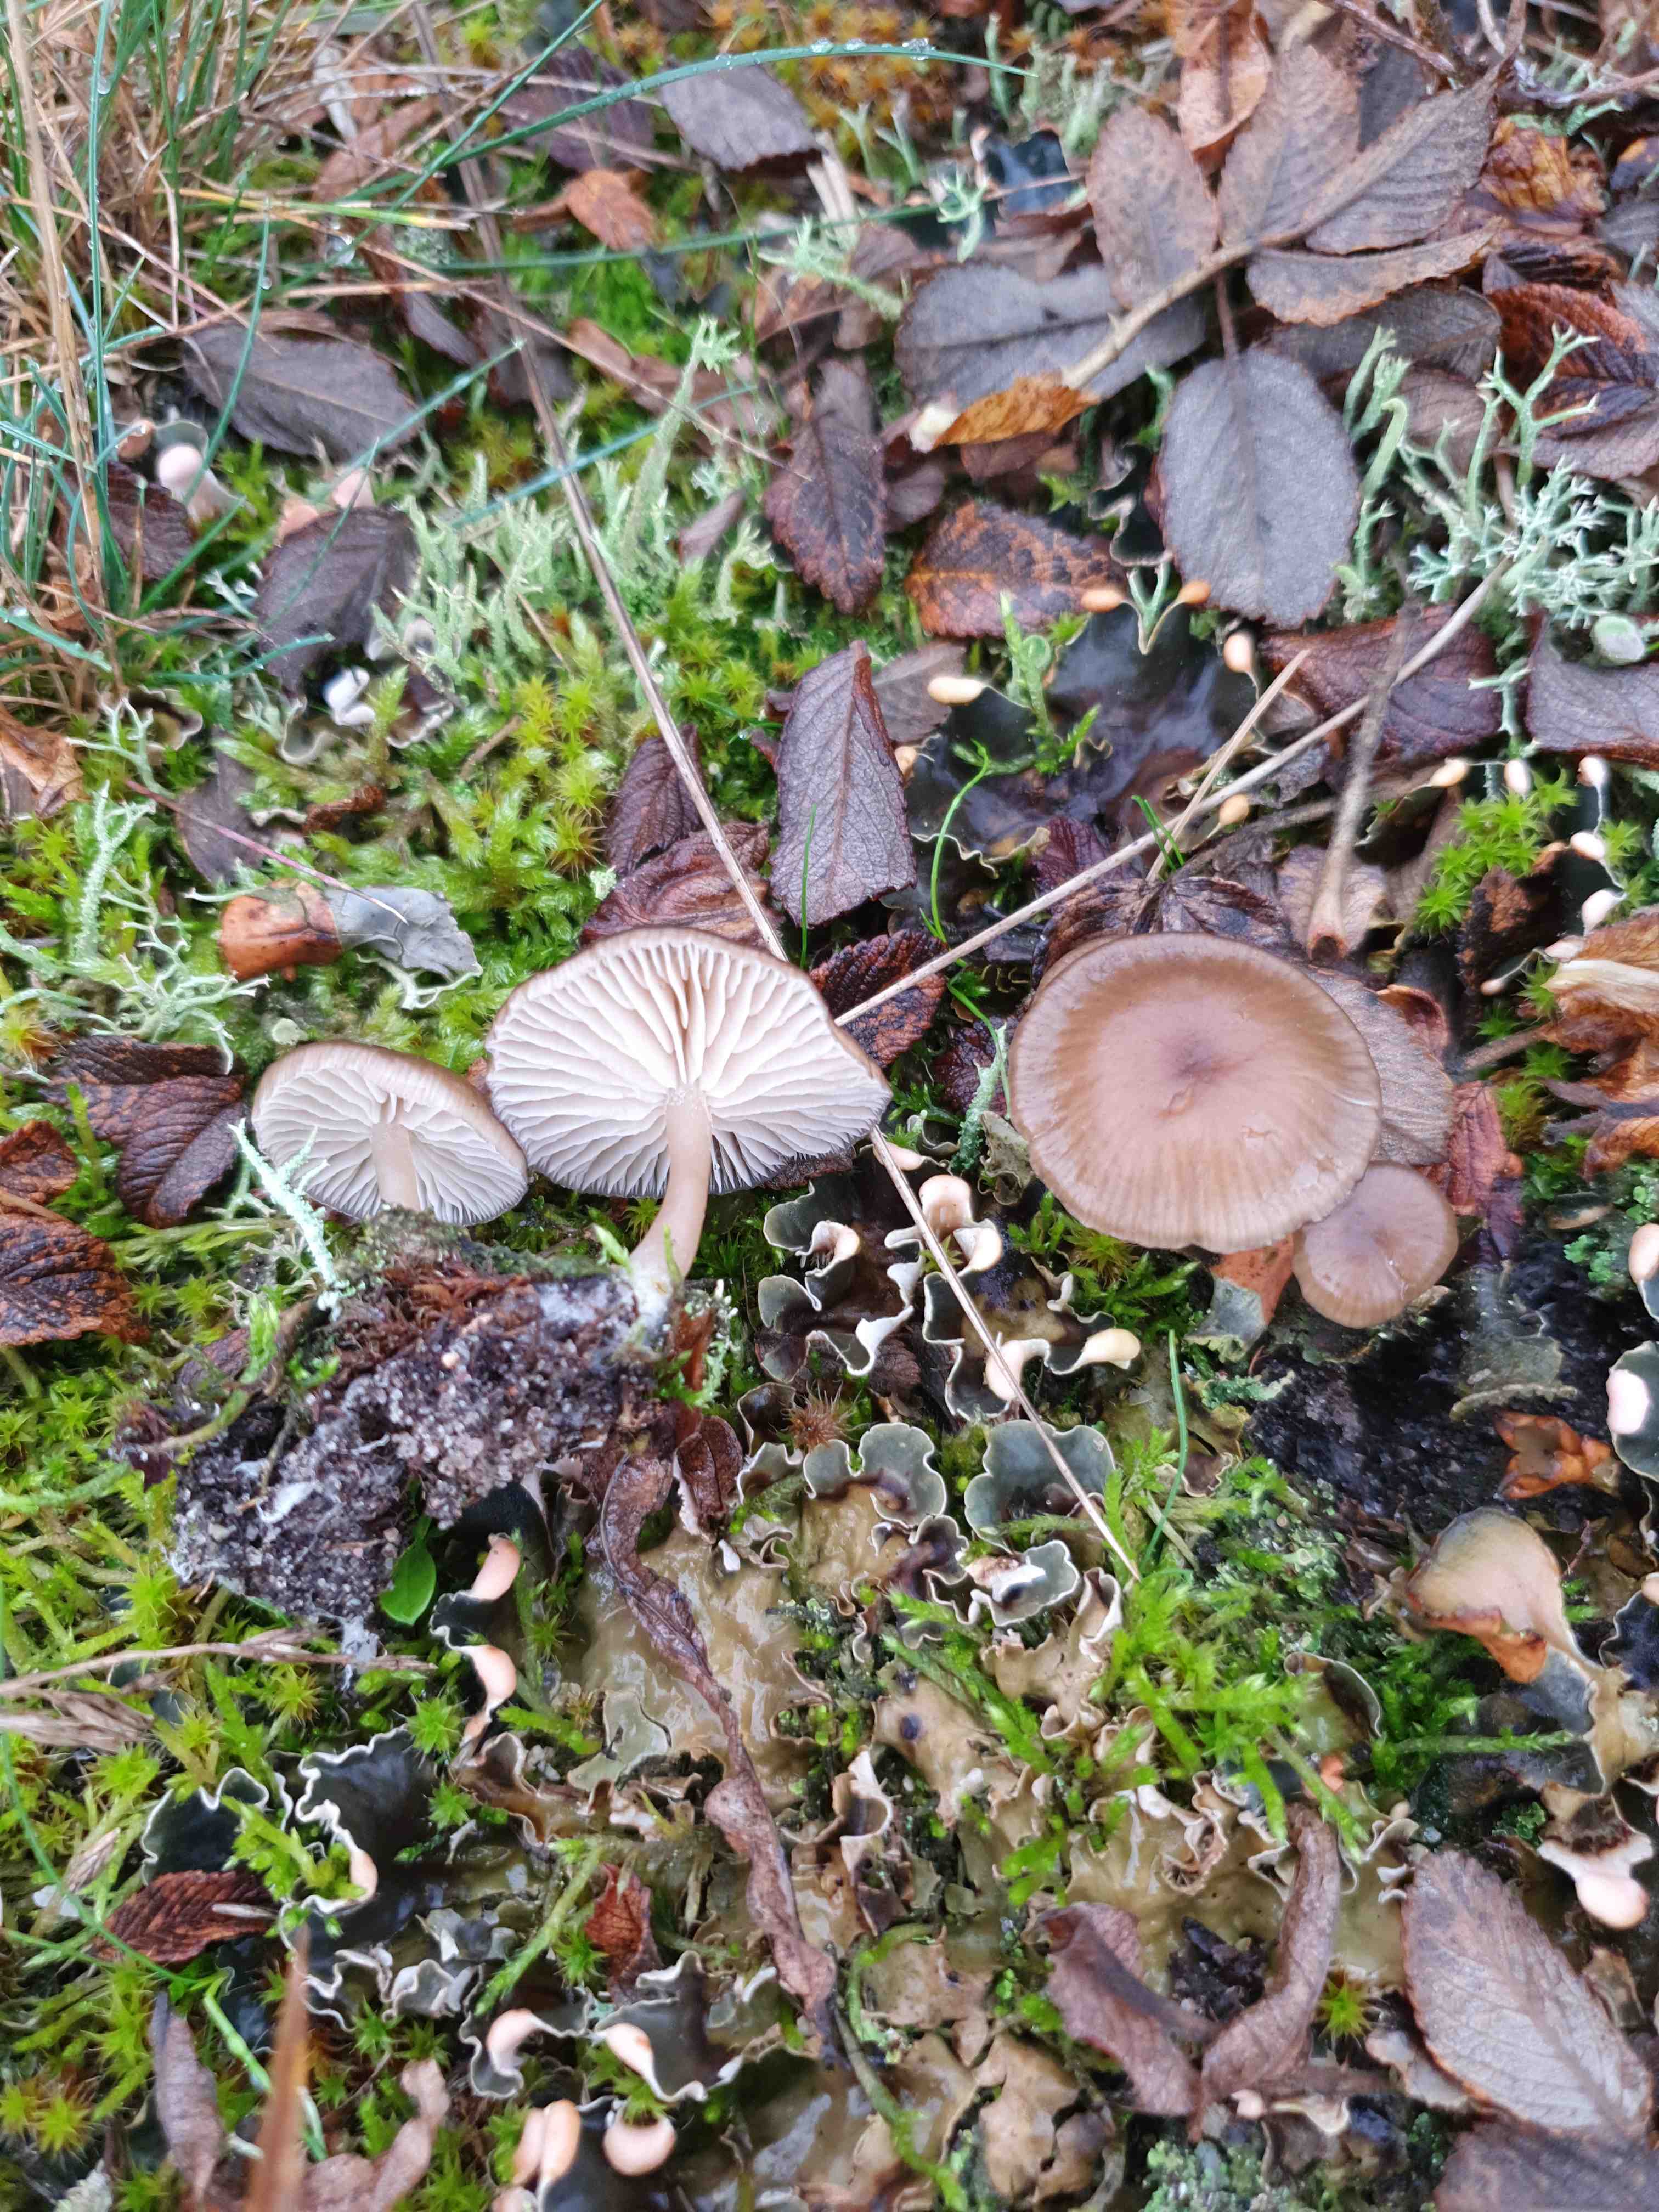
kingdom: Fungi
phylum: Basidiomycota
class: Agaricomycetes
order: Agaricales
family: Tricholomataceae
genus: Gamundia
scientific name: Gamundia xerophila
